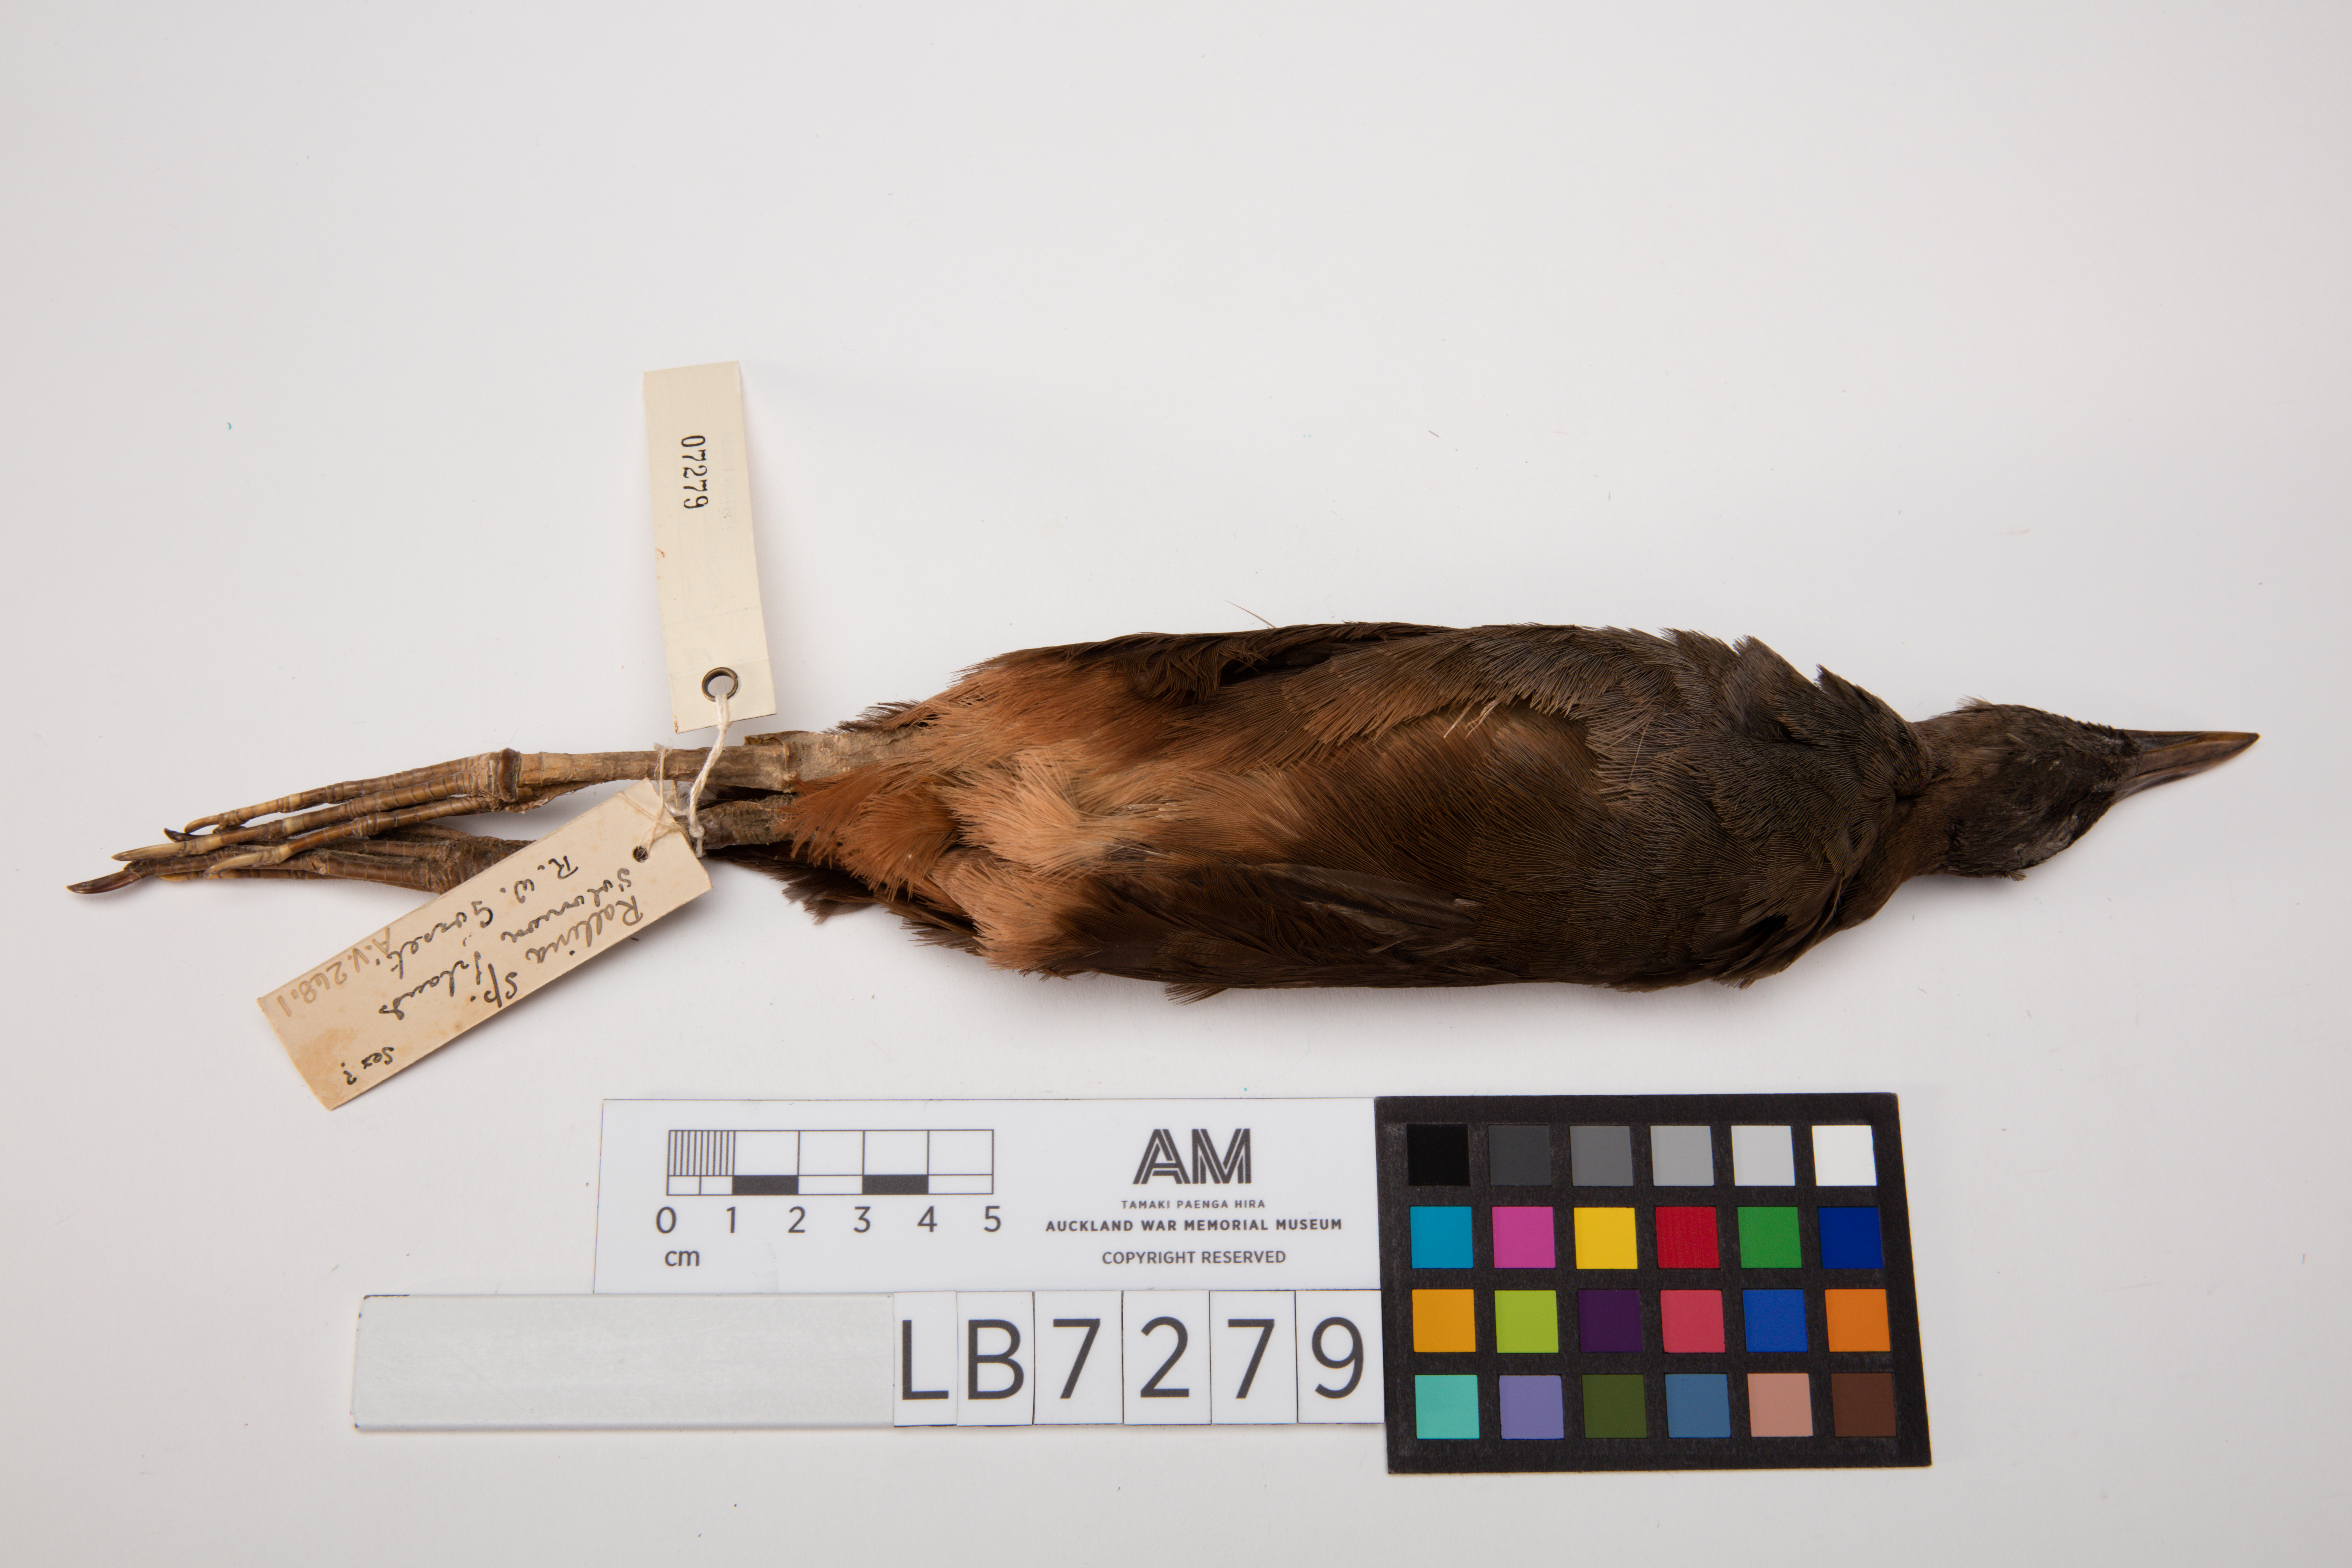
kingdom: Animalia
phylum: Chordata
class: Aves
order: Gruiformes
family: Rallidae
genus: Amaurornis
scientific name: Amaurornis olivacea
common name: Plain bush-hen
